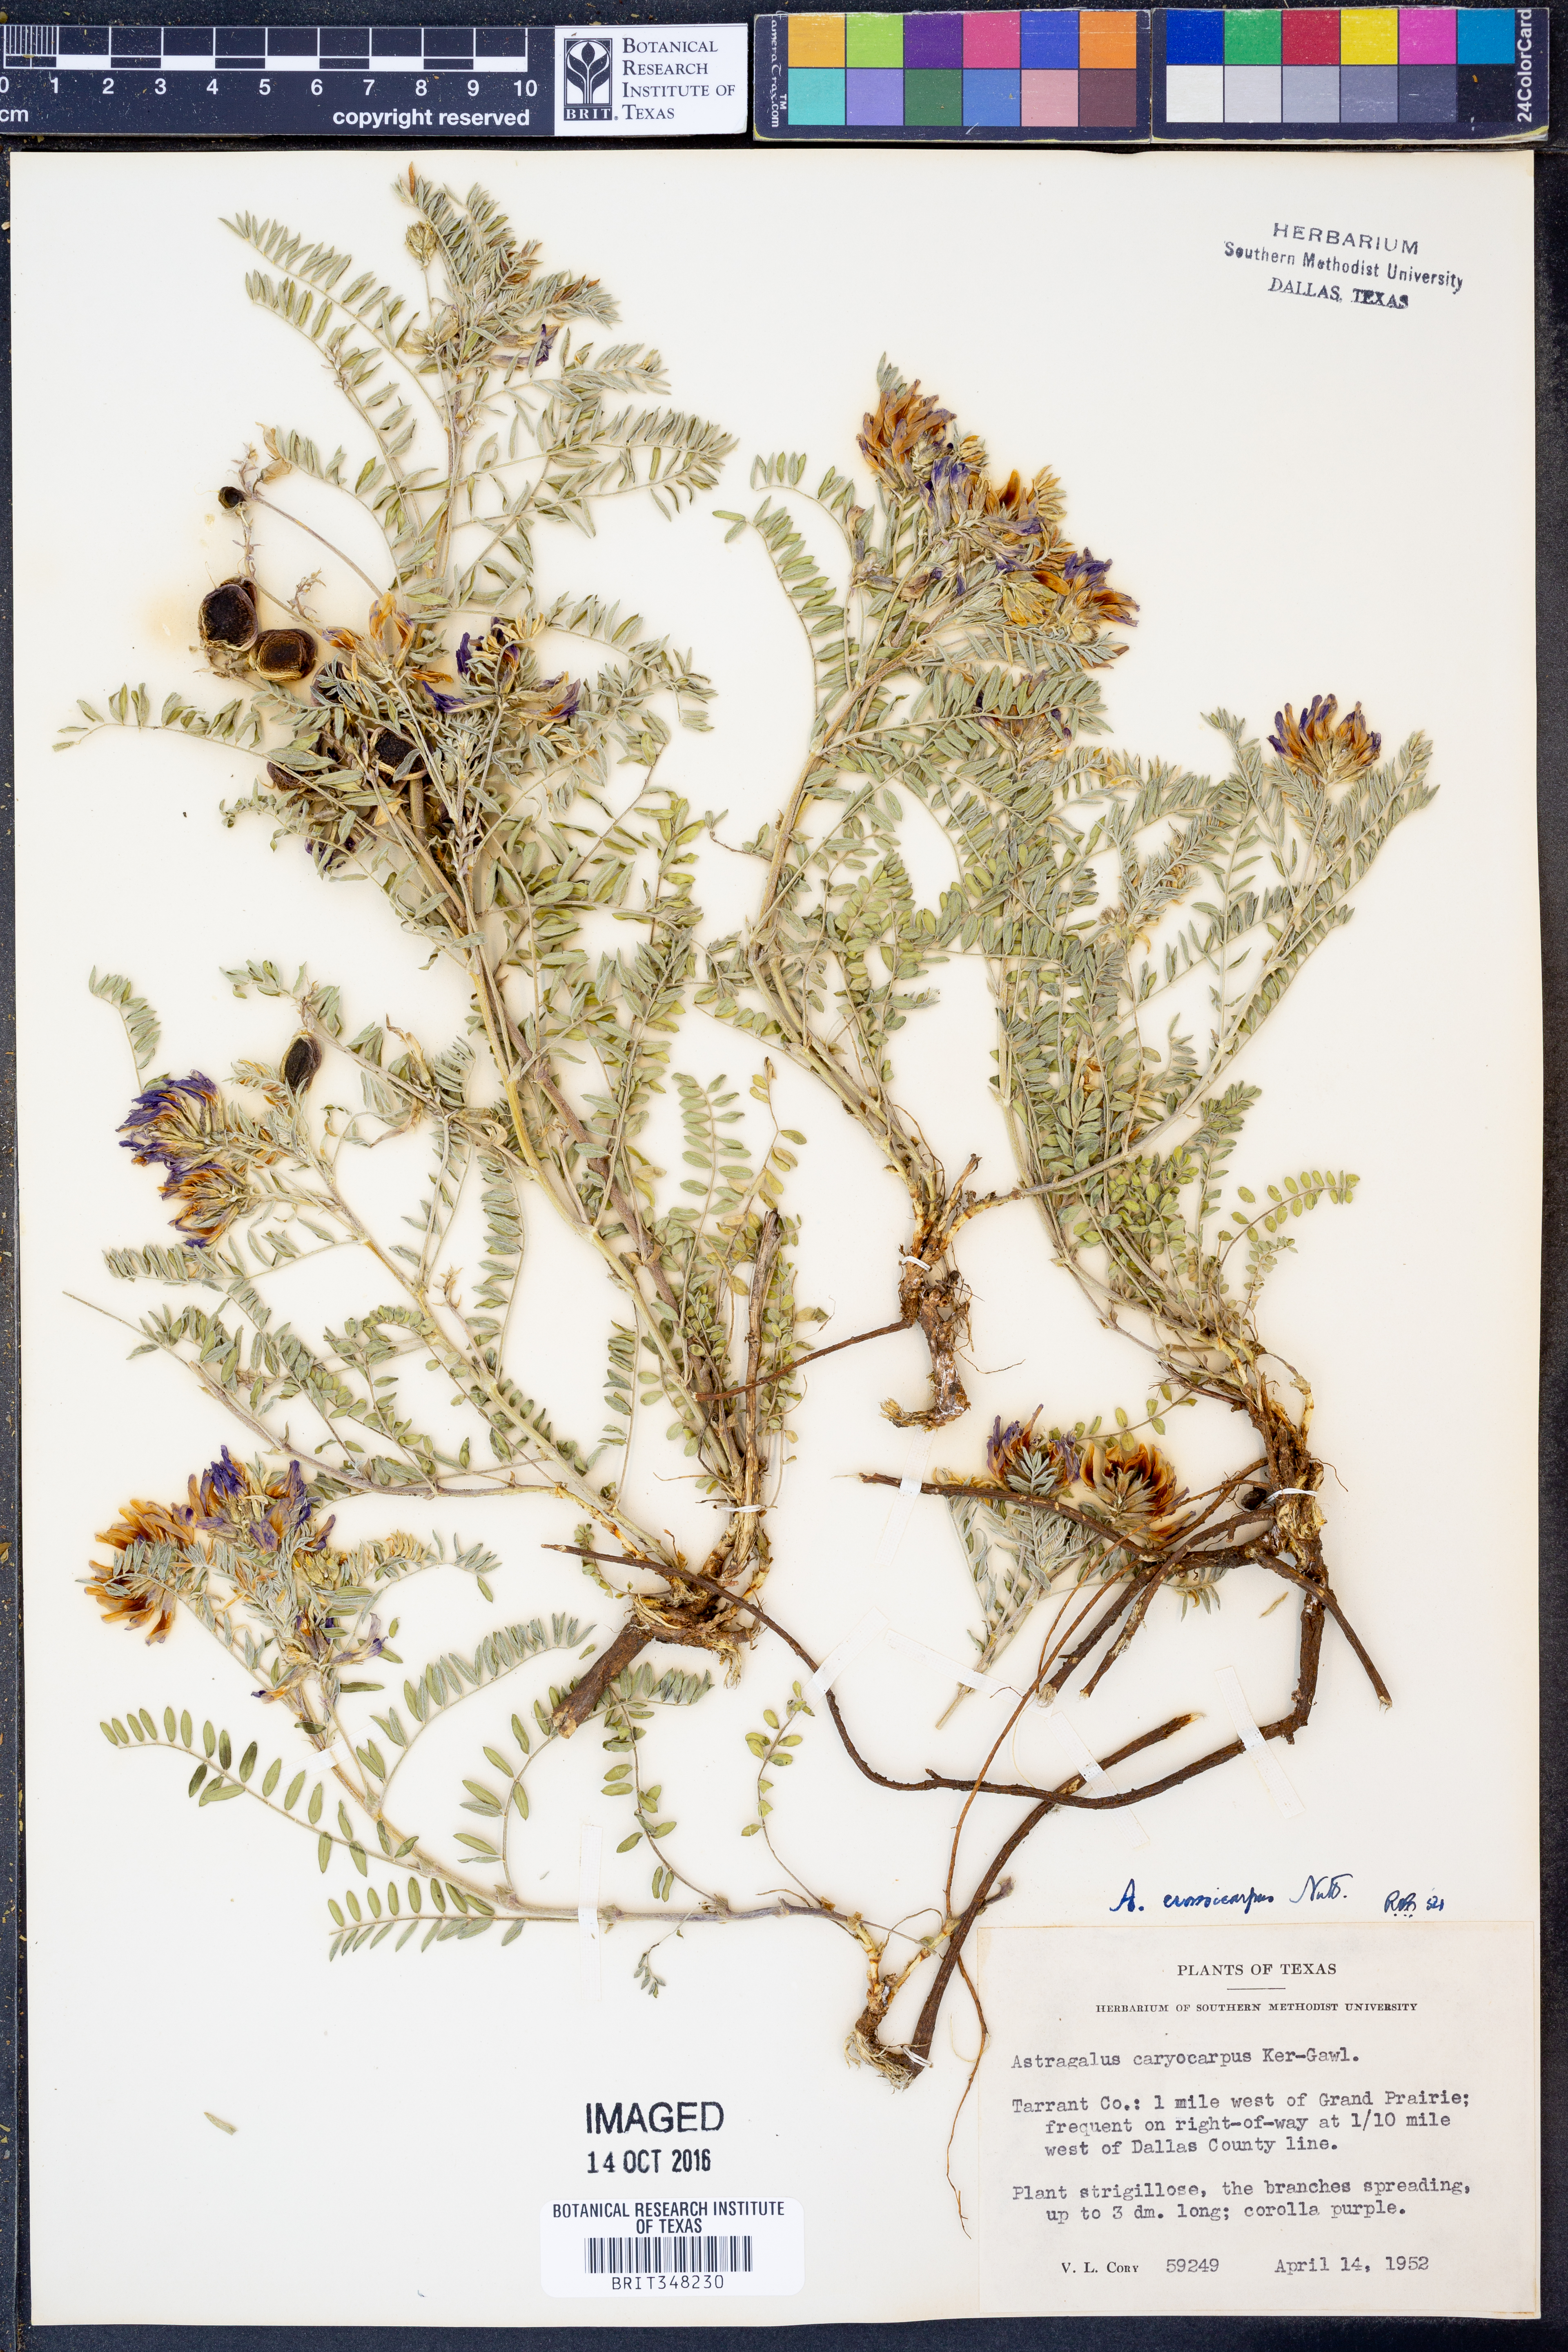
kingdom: Plantae
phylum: Tracheophyta
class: Magnoliopsida
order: Fabales
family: Fabaceae
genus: Astragalus
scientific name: Astragalus crassicarpus
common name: Ground-plum milk-vetch
